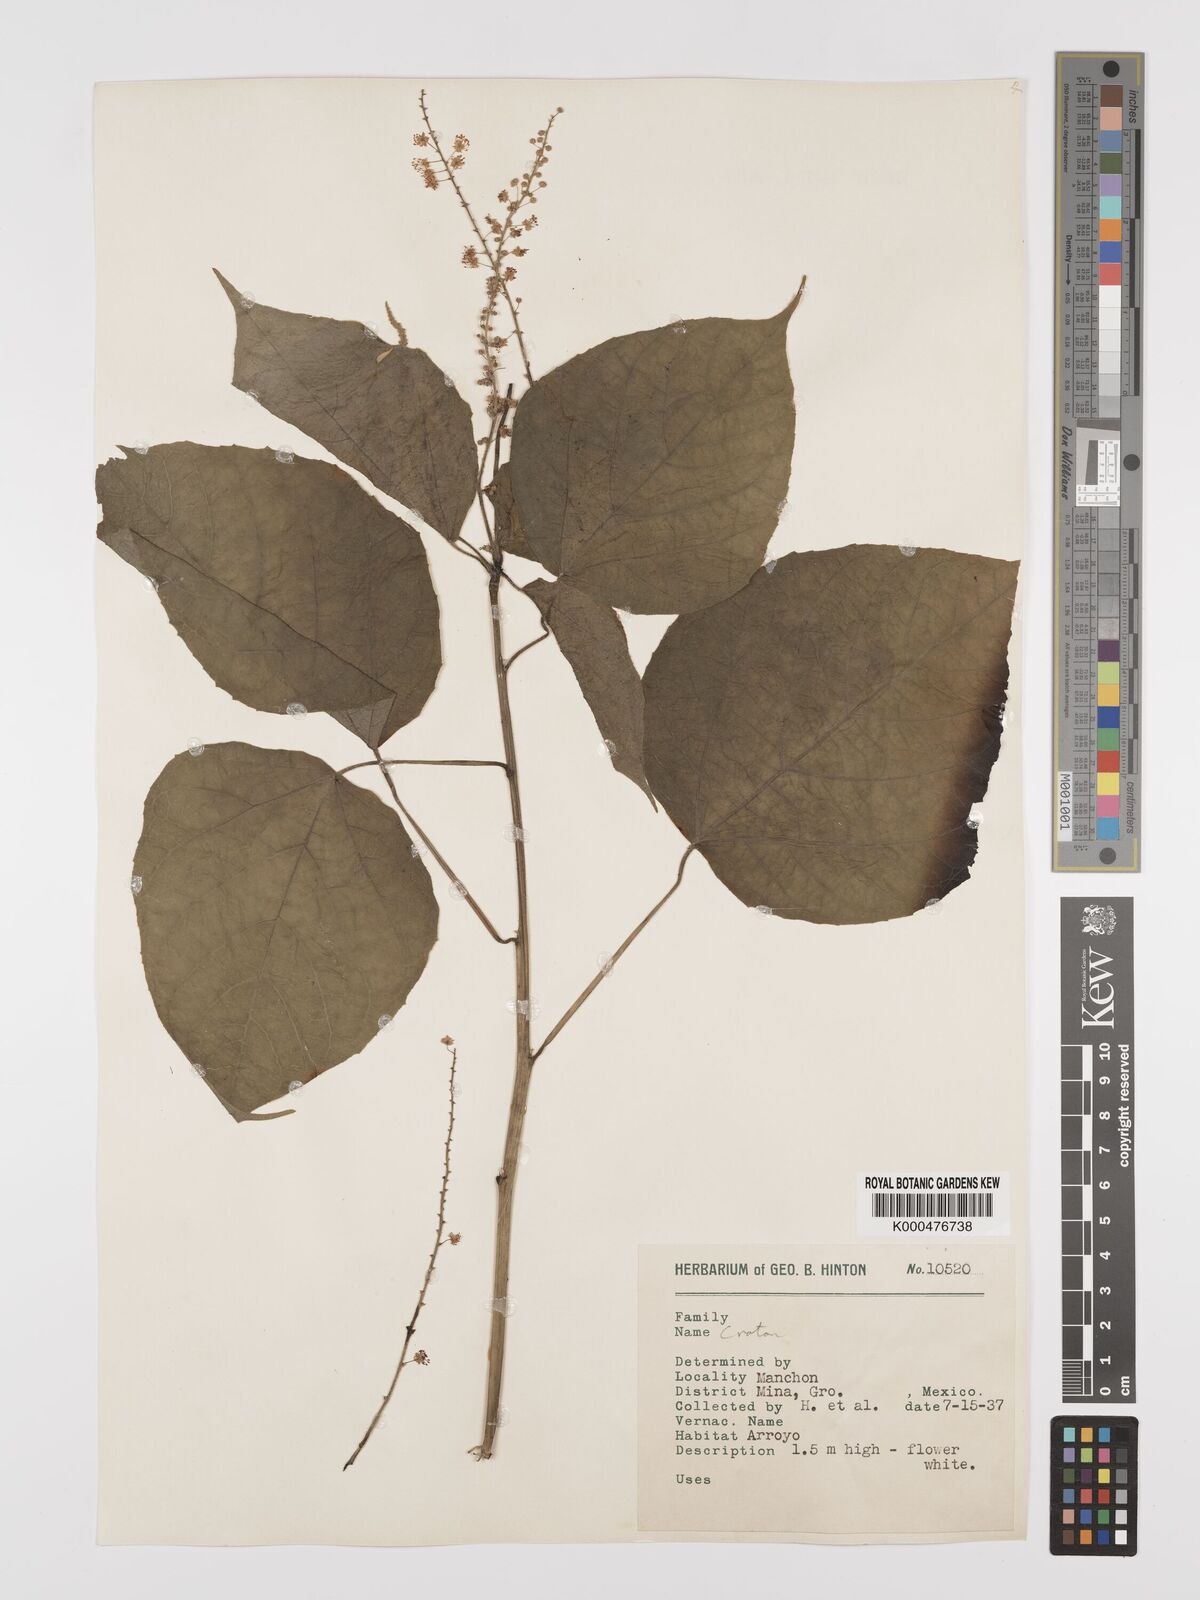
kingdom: Plantae
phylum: Tracheophyta
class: Magnoliopsida
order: Malpighiales
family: Euphorbiaceae
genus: Croton
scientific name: Croton
